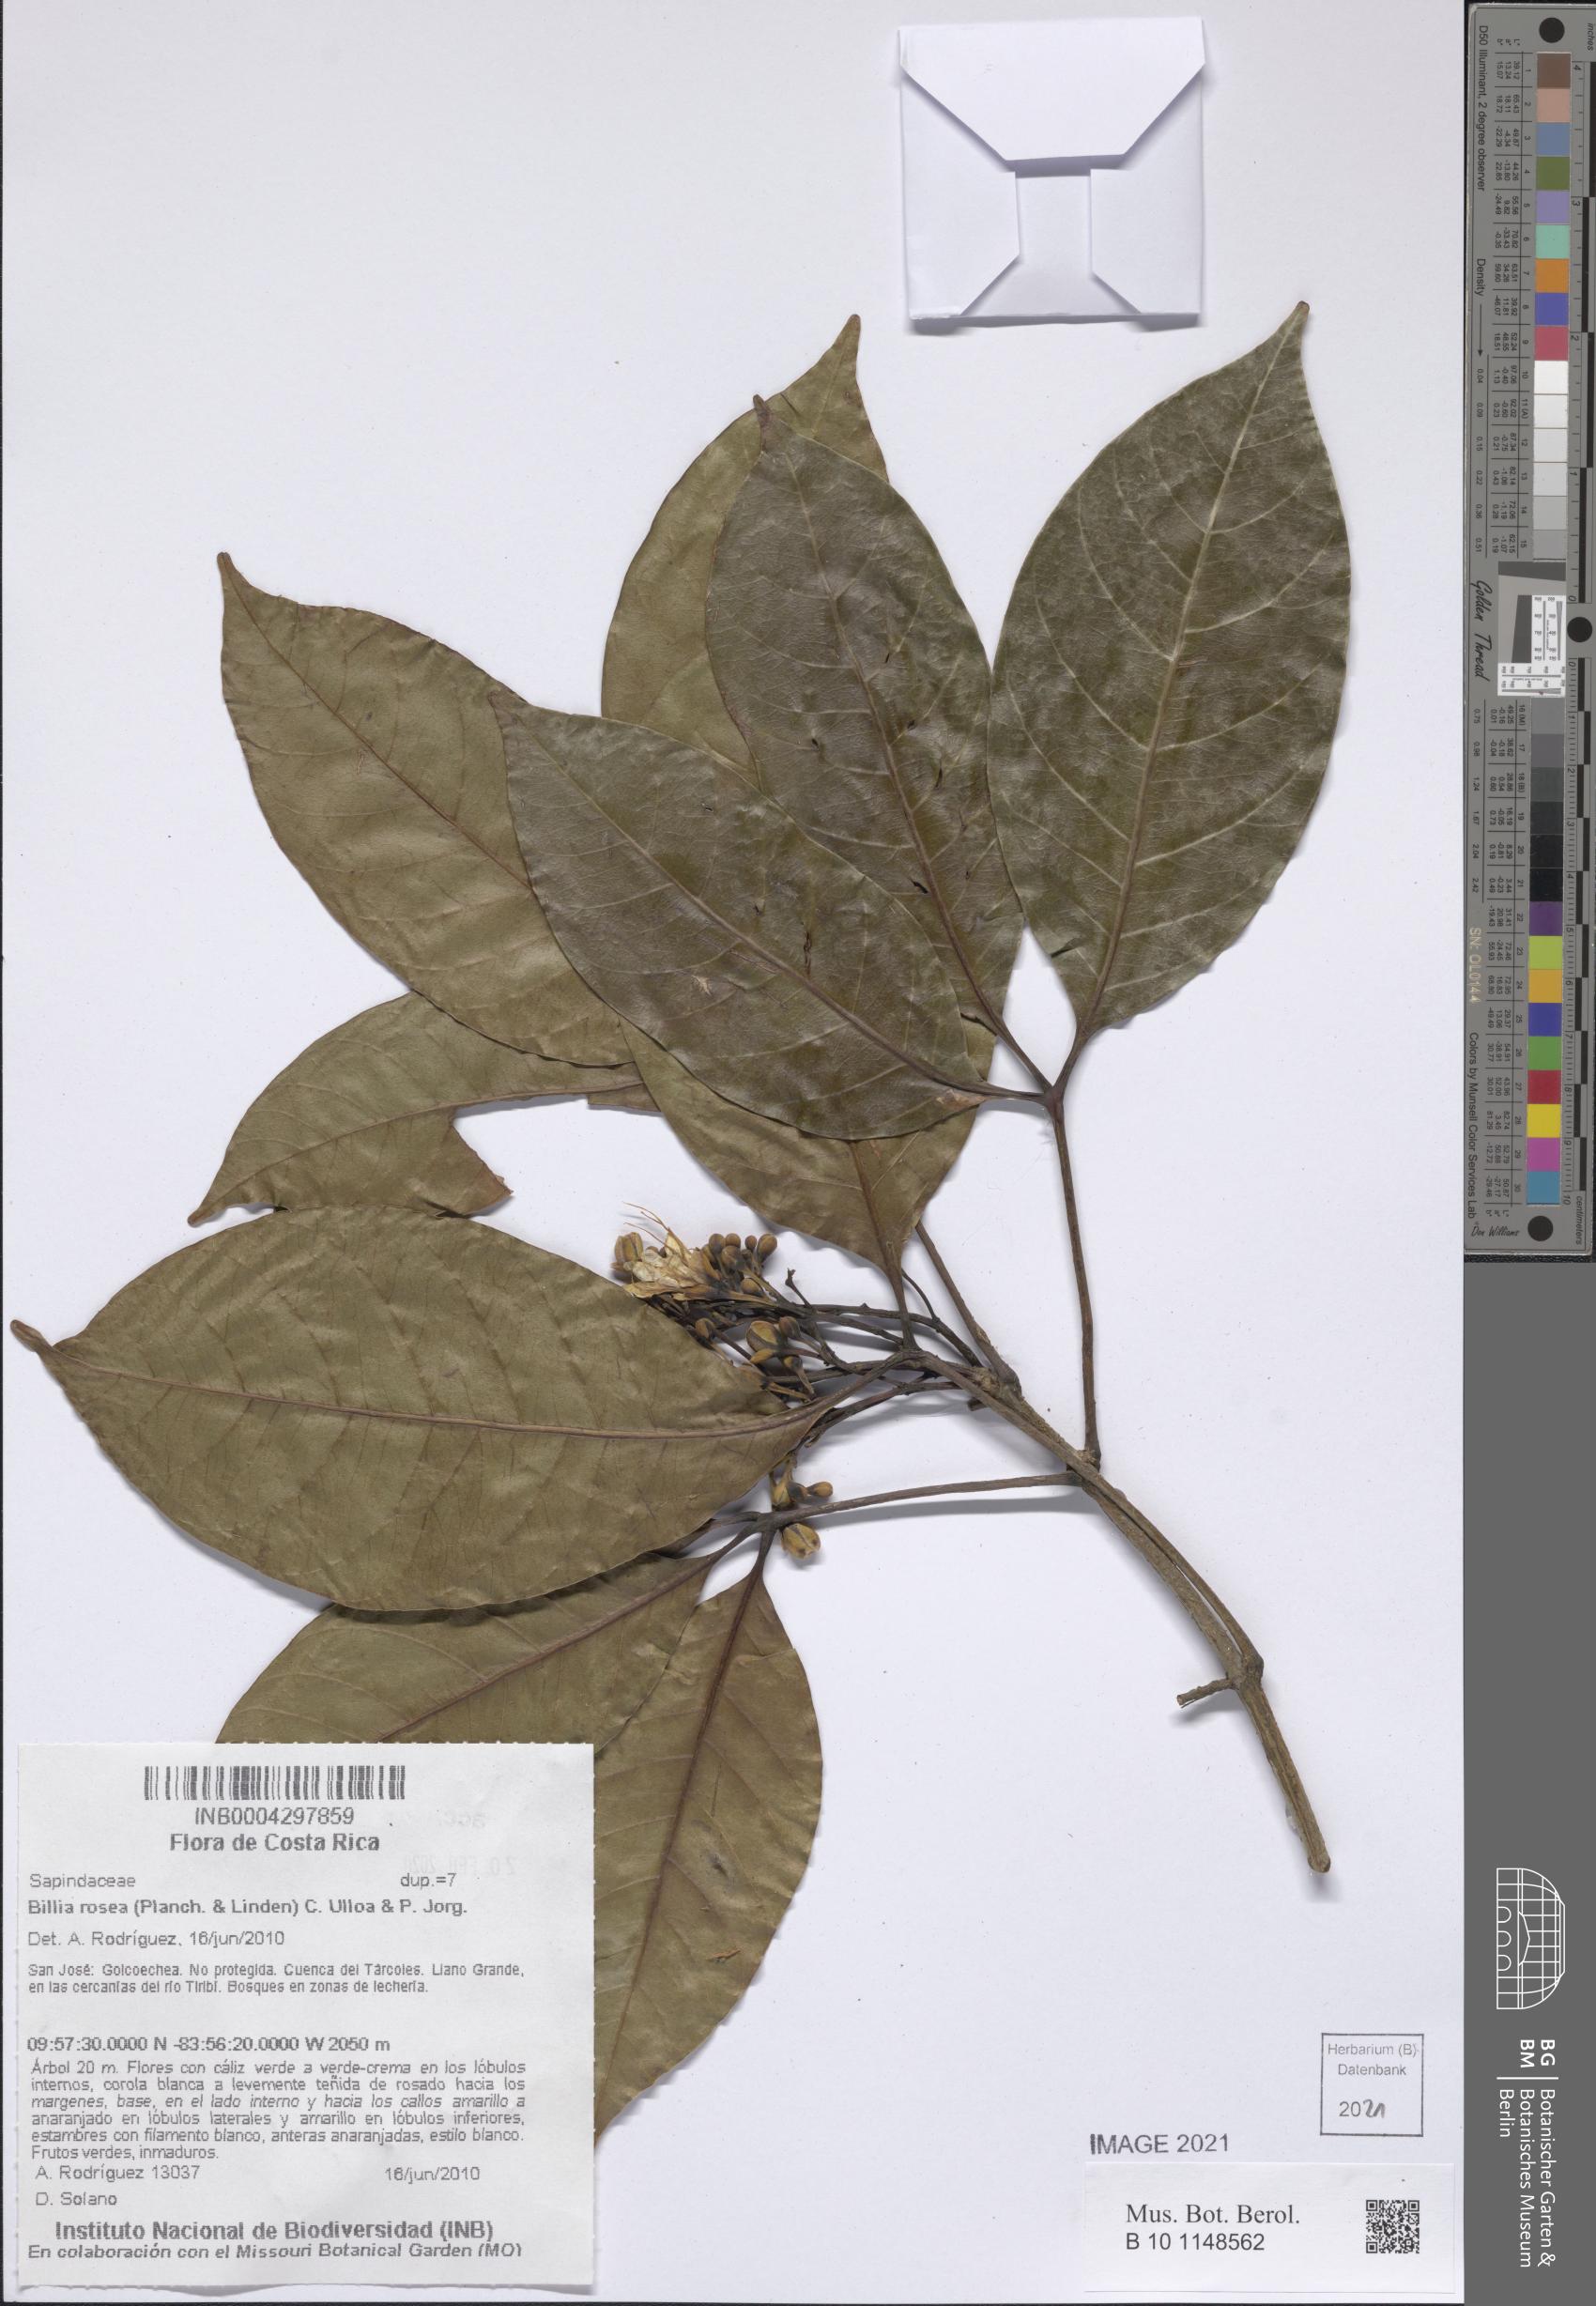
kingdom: Plantae
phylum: Tracheophyta
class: Magnoliopsida
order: Sapindales
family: Sapindaceae
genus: Billia
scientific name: Billia rosea
